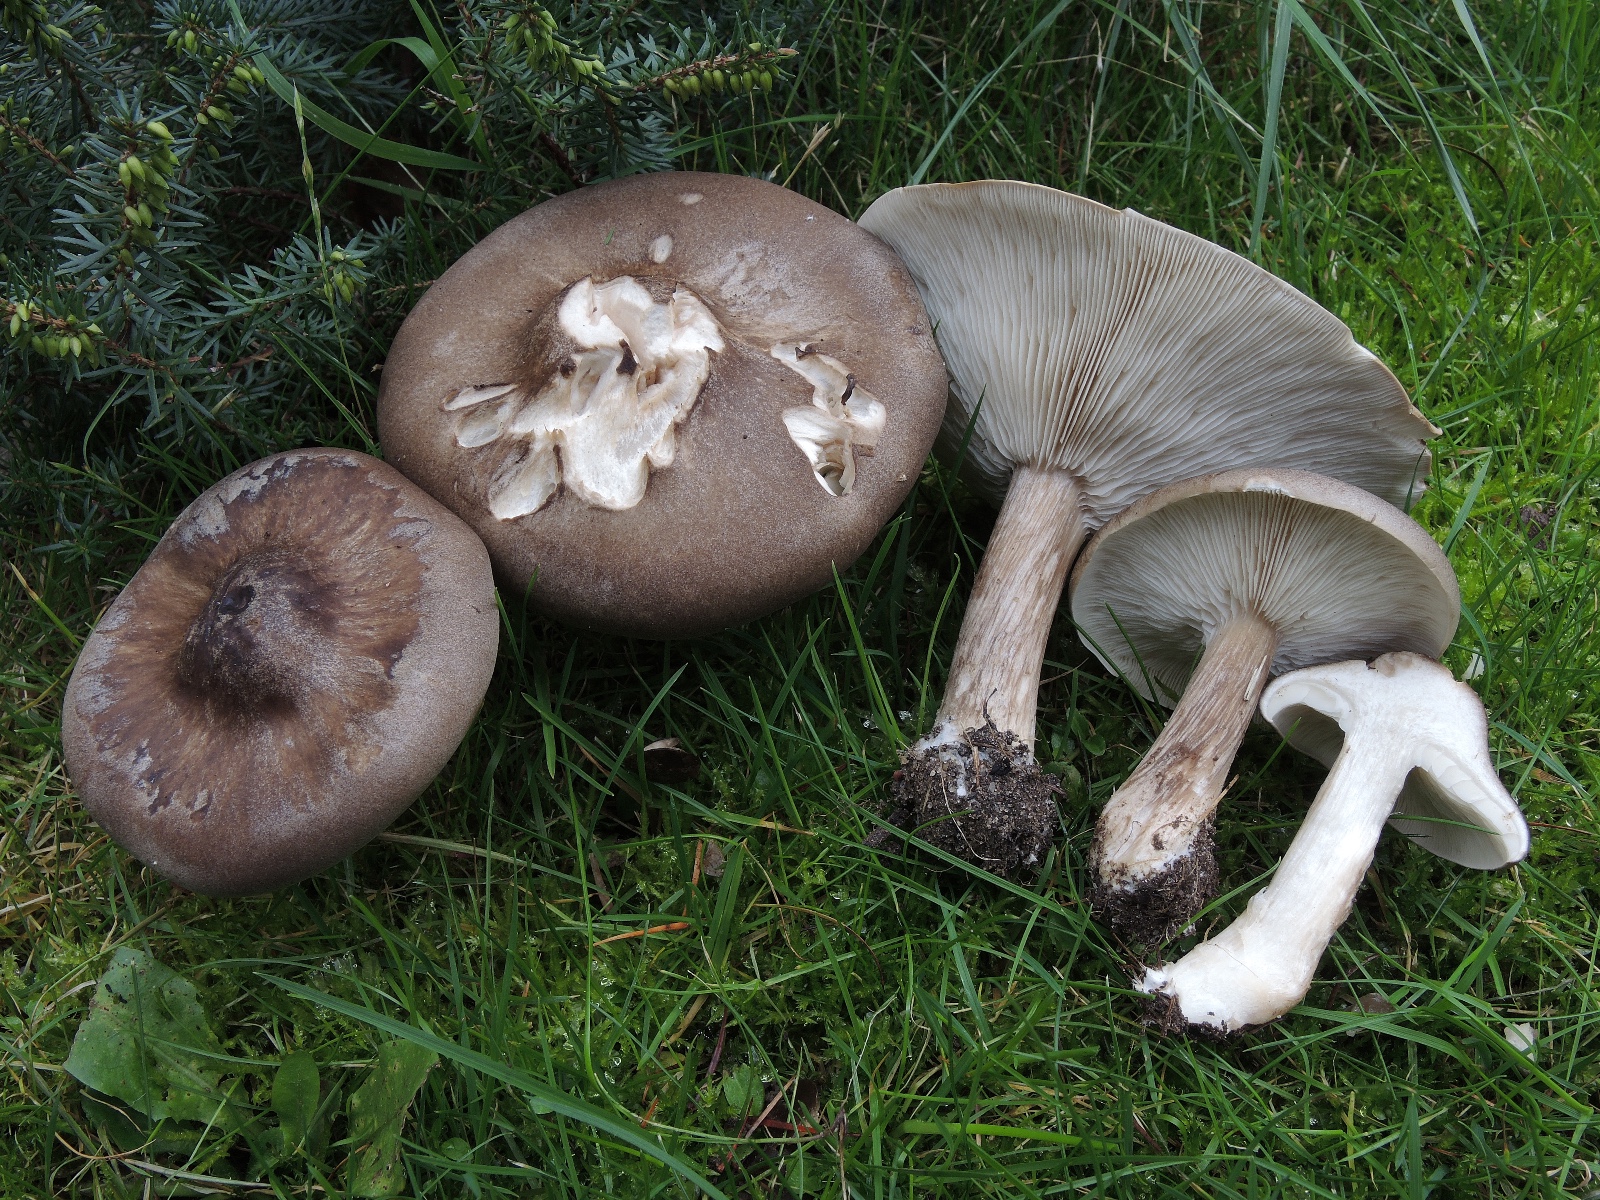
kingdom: Fungi
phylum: Basidiomycota
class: Agaricomycetes
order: Agaricales
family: Tricholomataceae
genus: Melanoleuca
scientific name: Melanoleuca grammopodia
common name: stribestokket munkehat
